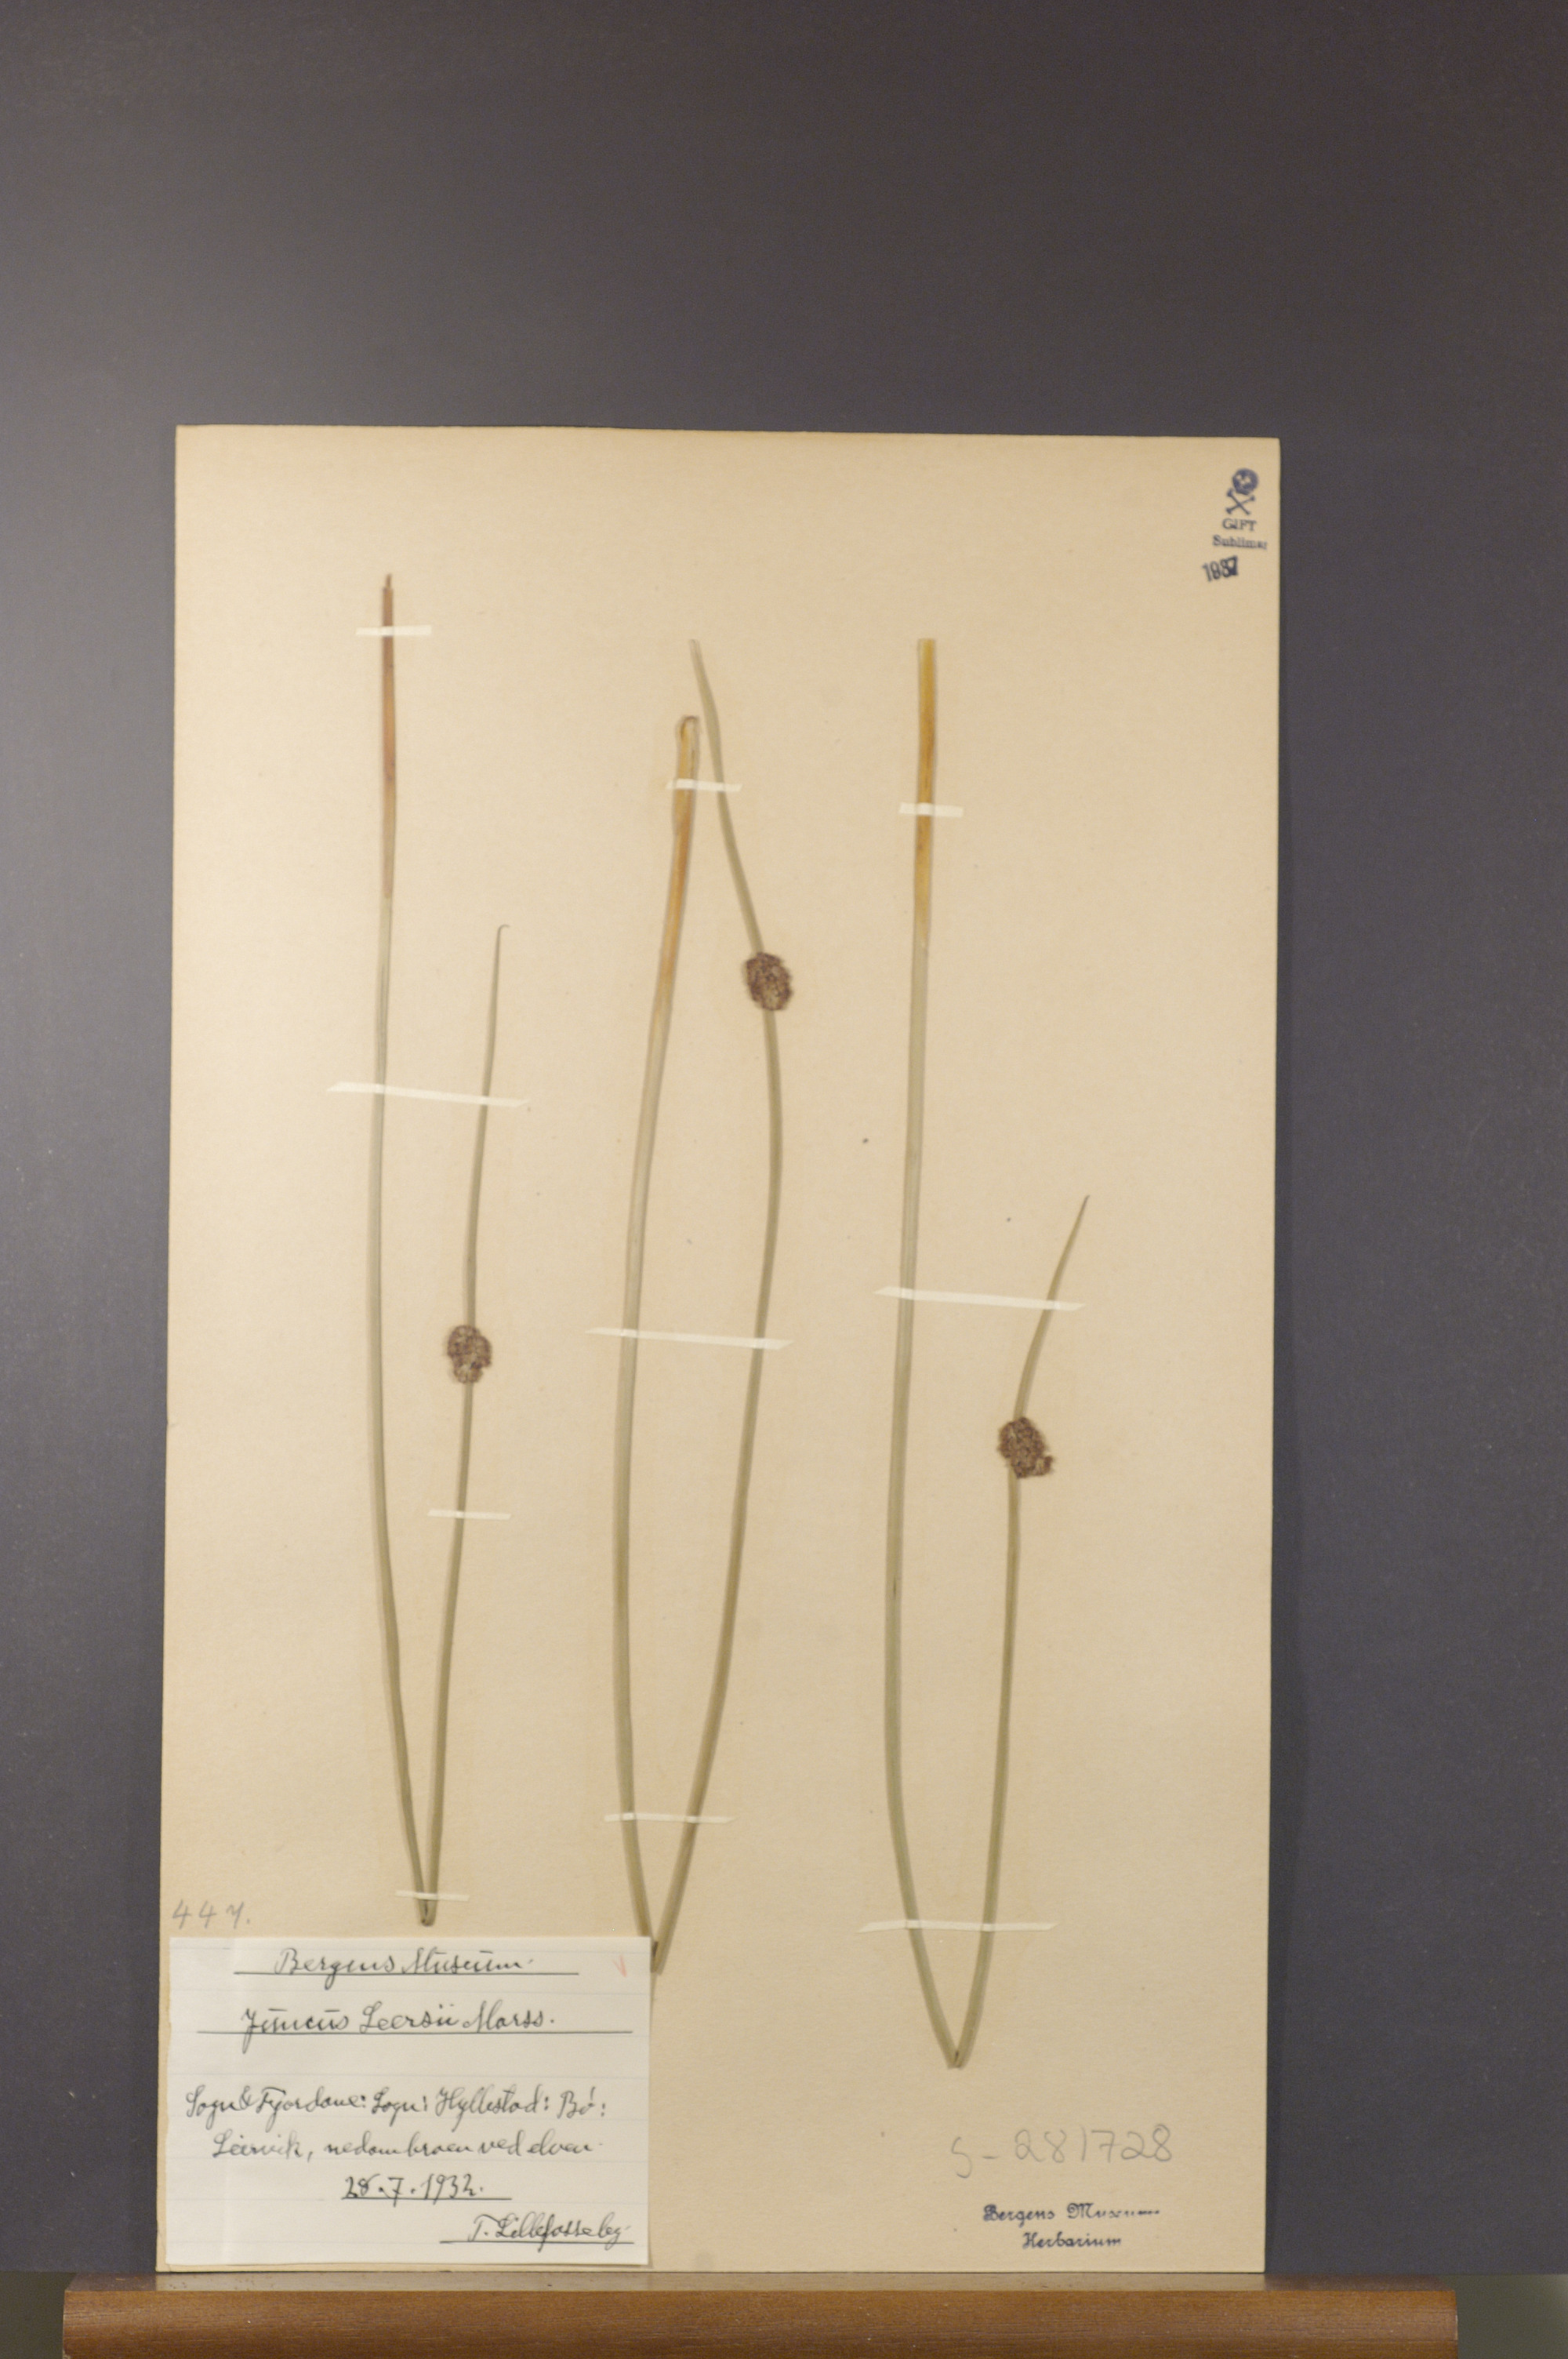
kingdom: Plantae
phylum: Tracheophyta
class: Liliopsida
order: Poales
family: Juncaceae
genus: Juncus
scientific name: Juncus conglomeratus
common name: Compact rush
